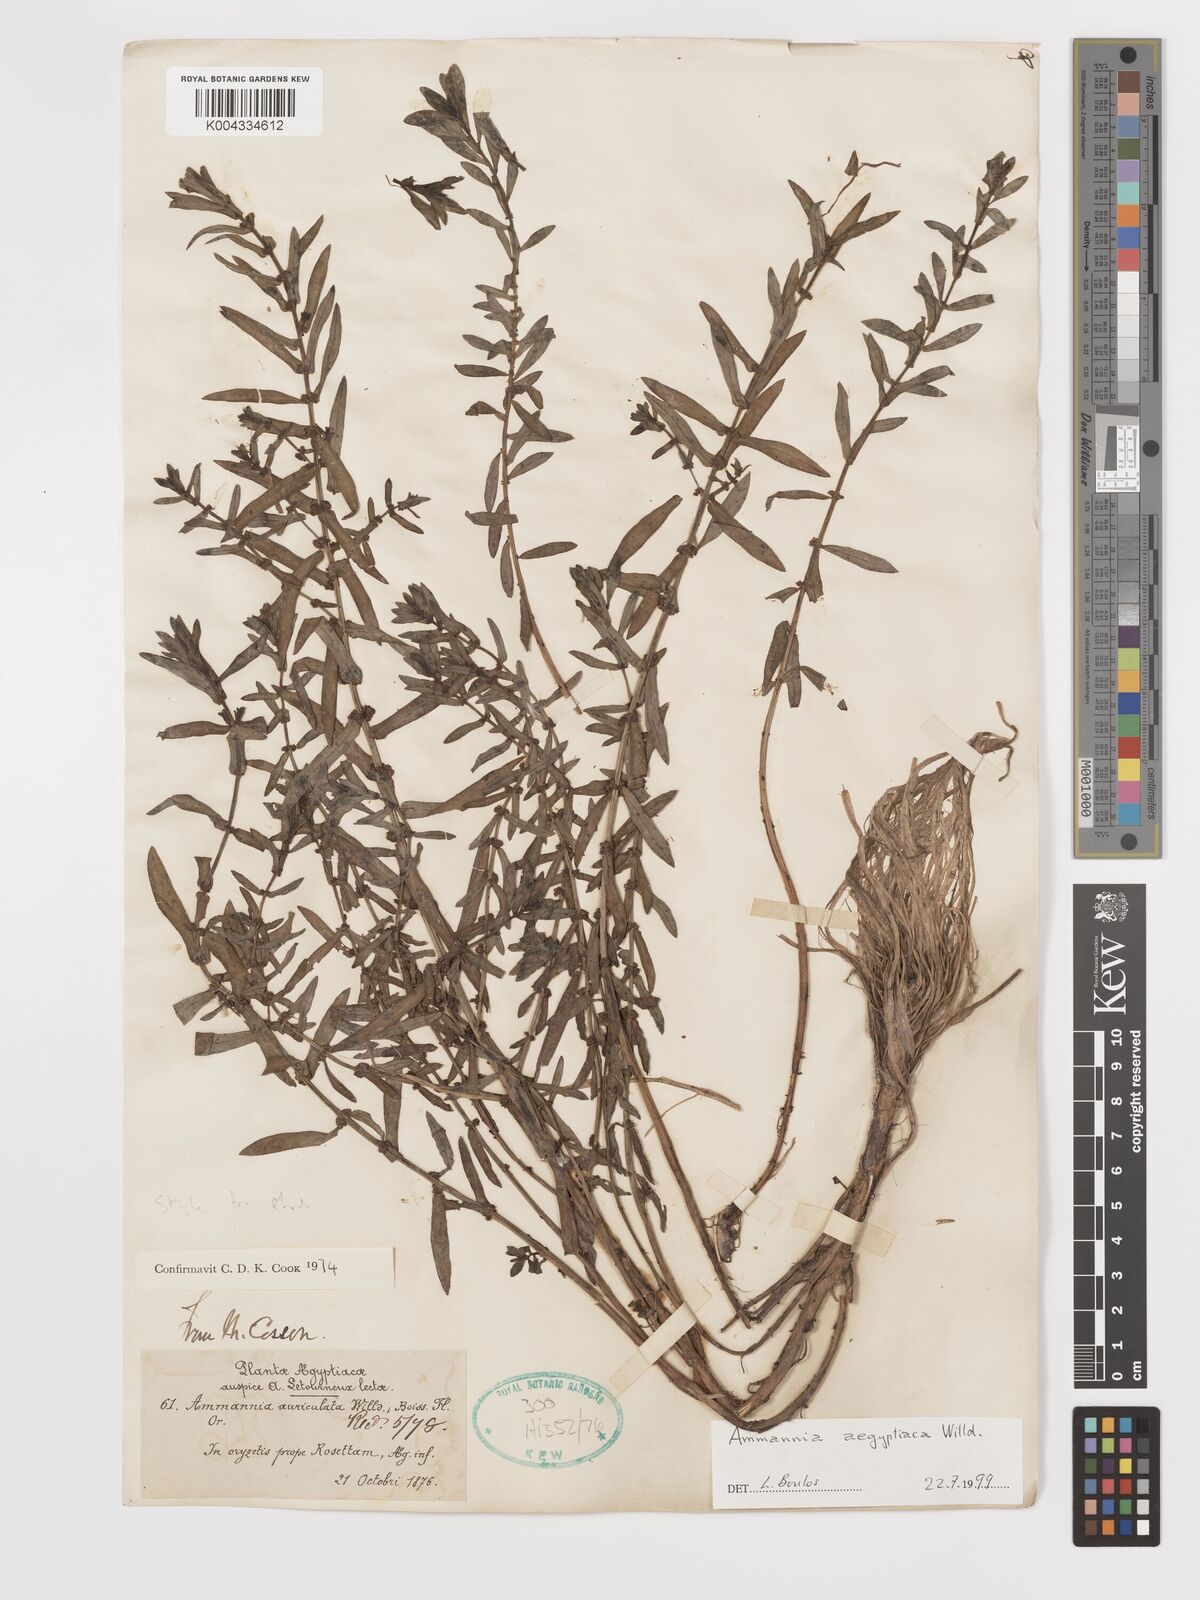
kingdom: Plantae
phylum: Tracheophyta
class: Magnoliopsida
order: Myrtales
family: Lythraceae
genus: Ammannia
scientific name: Ammannia
